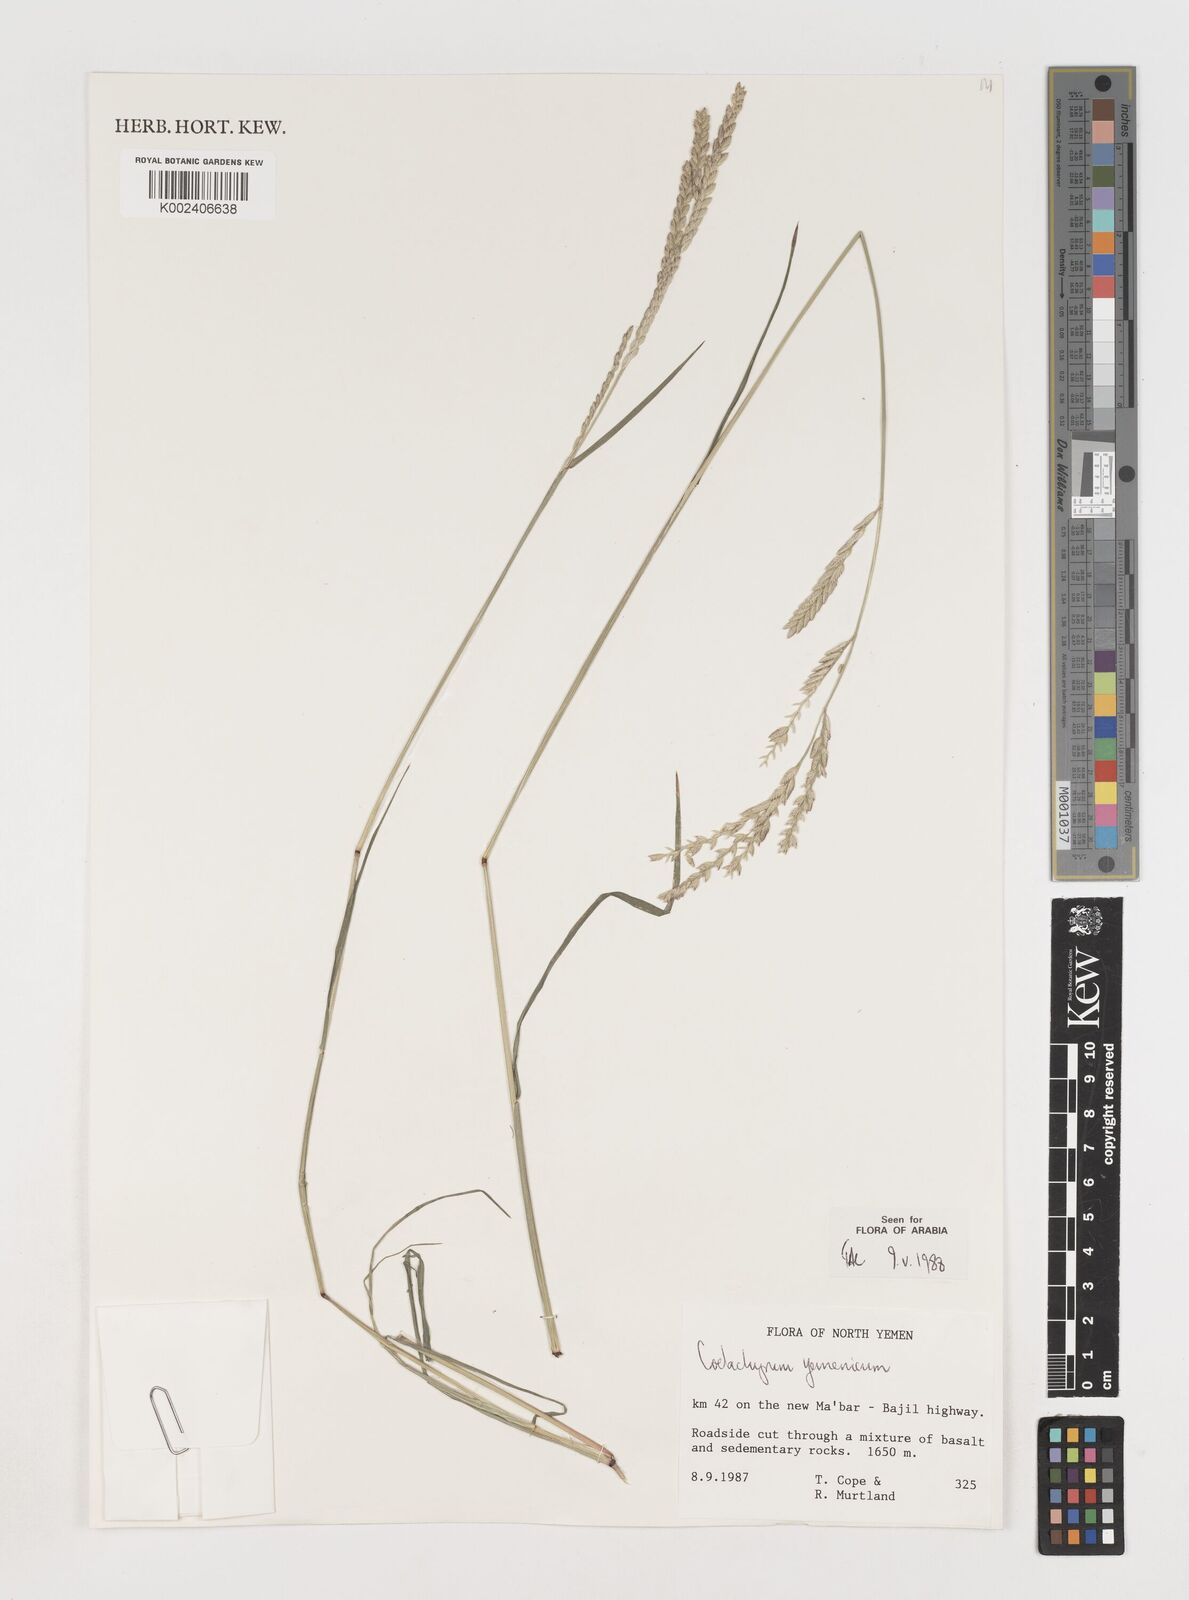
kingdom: Plantae
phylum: Tracheophyta
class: Liliopsida
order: Poales
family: Poaceae
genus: Disakisperma
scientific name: Disakisperma yemenicum
